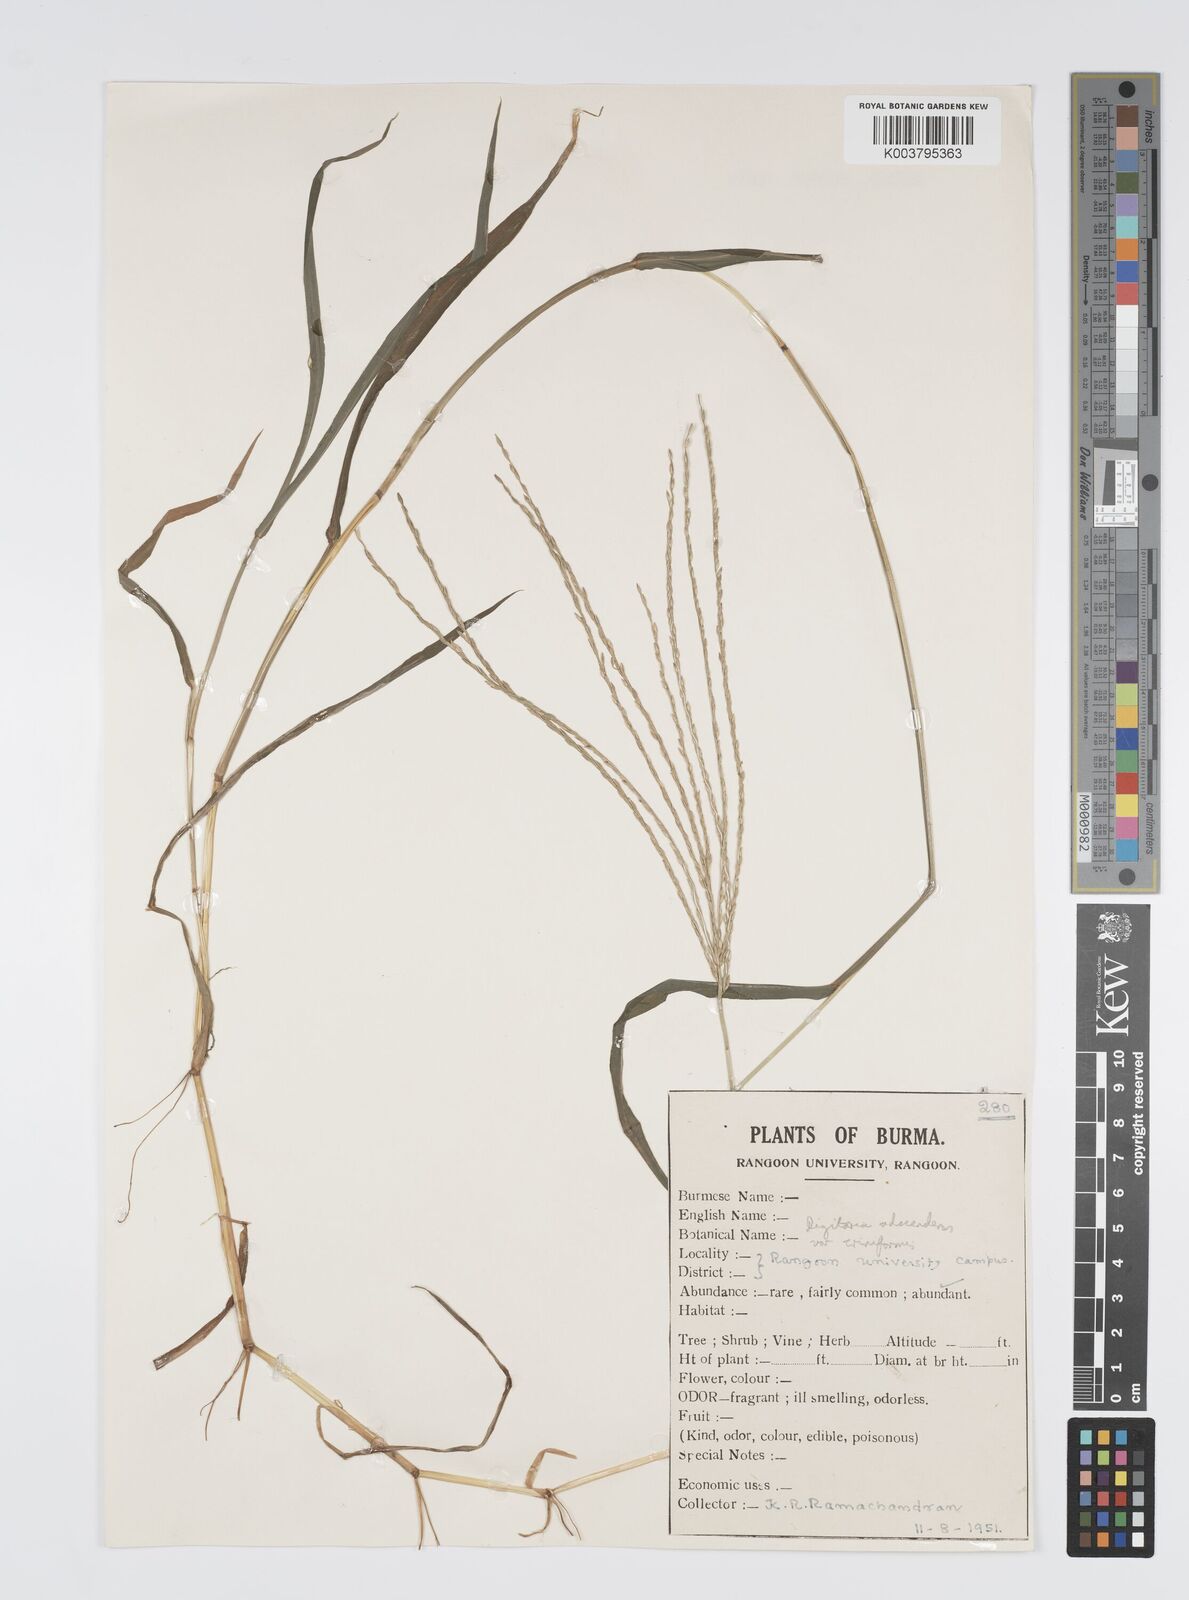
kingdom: Plantae
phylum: Tracheophyta
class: Liliopsida
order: Poales
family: Poaceae
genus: Digitaria
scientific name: Digitaria ciliaris
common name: Tropical finger-grass
